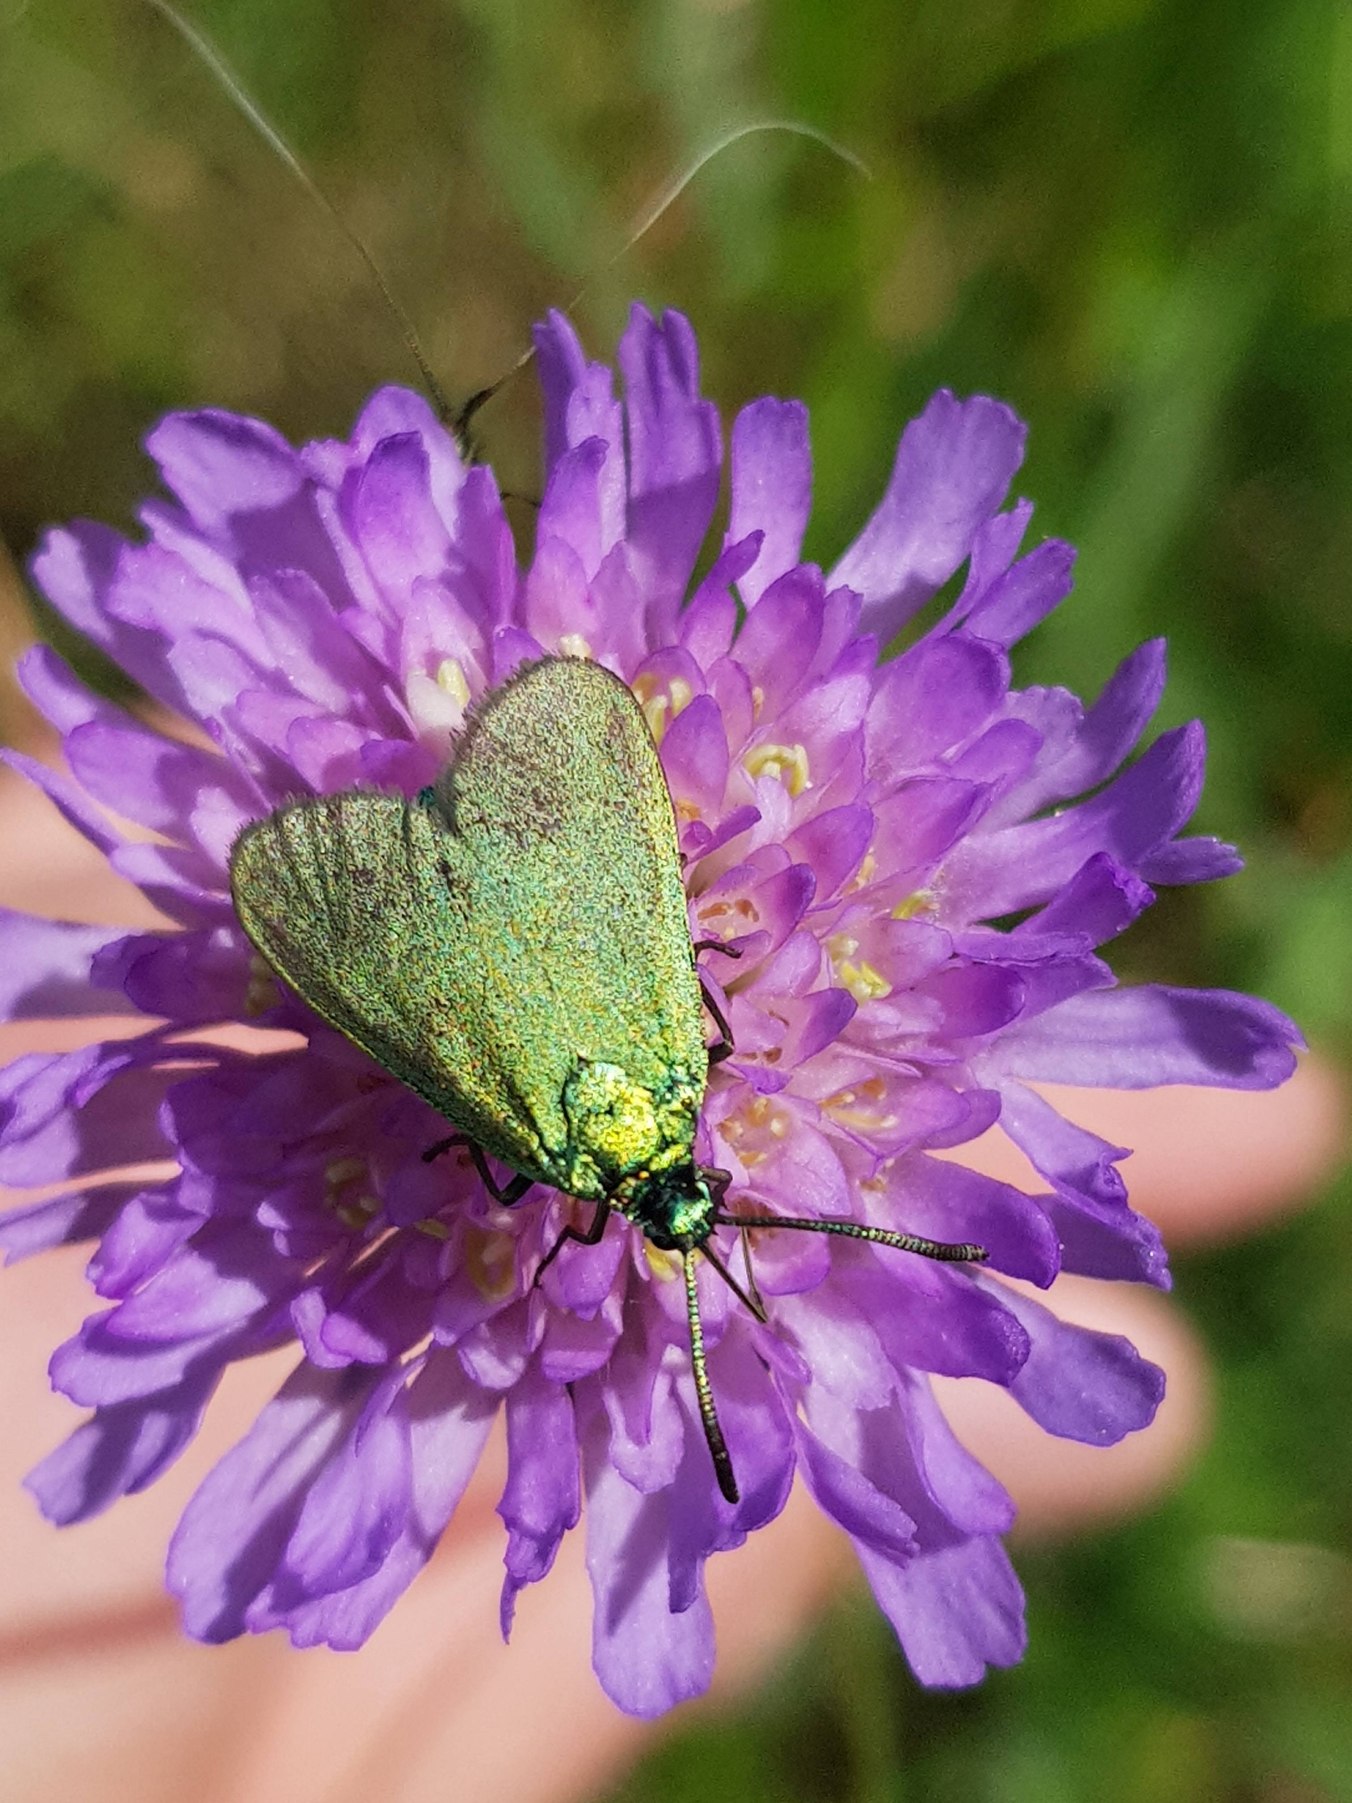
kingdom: Animalia
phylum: Arthropoda
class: Insecta
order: Lepidoptera
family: Zygaenidae
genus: Adscita
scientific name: Adscita statices
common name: Metalvinge
